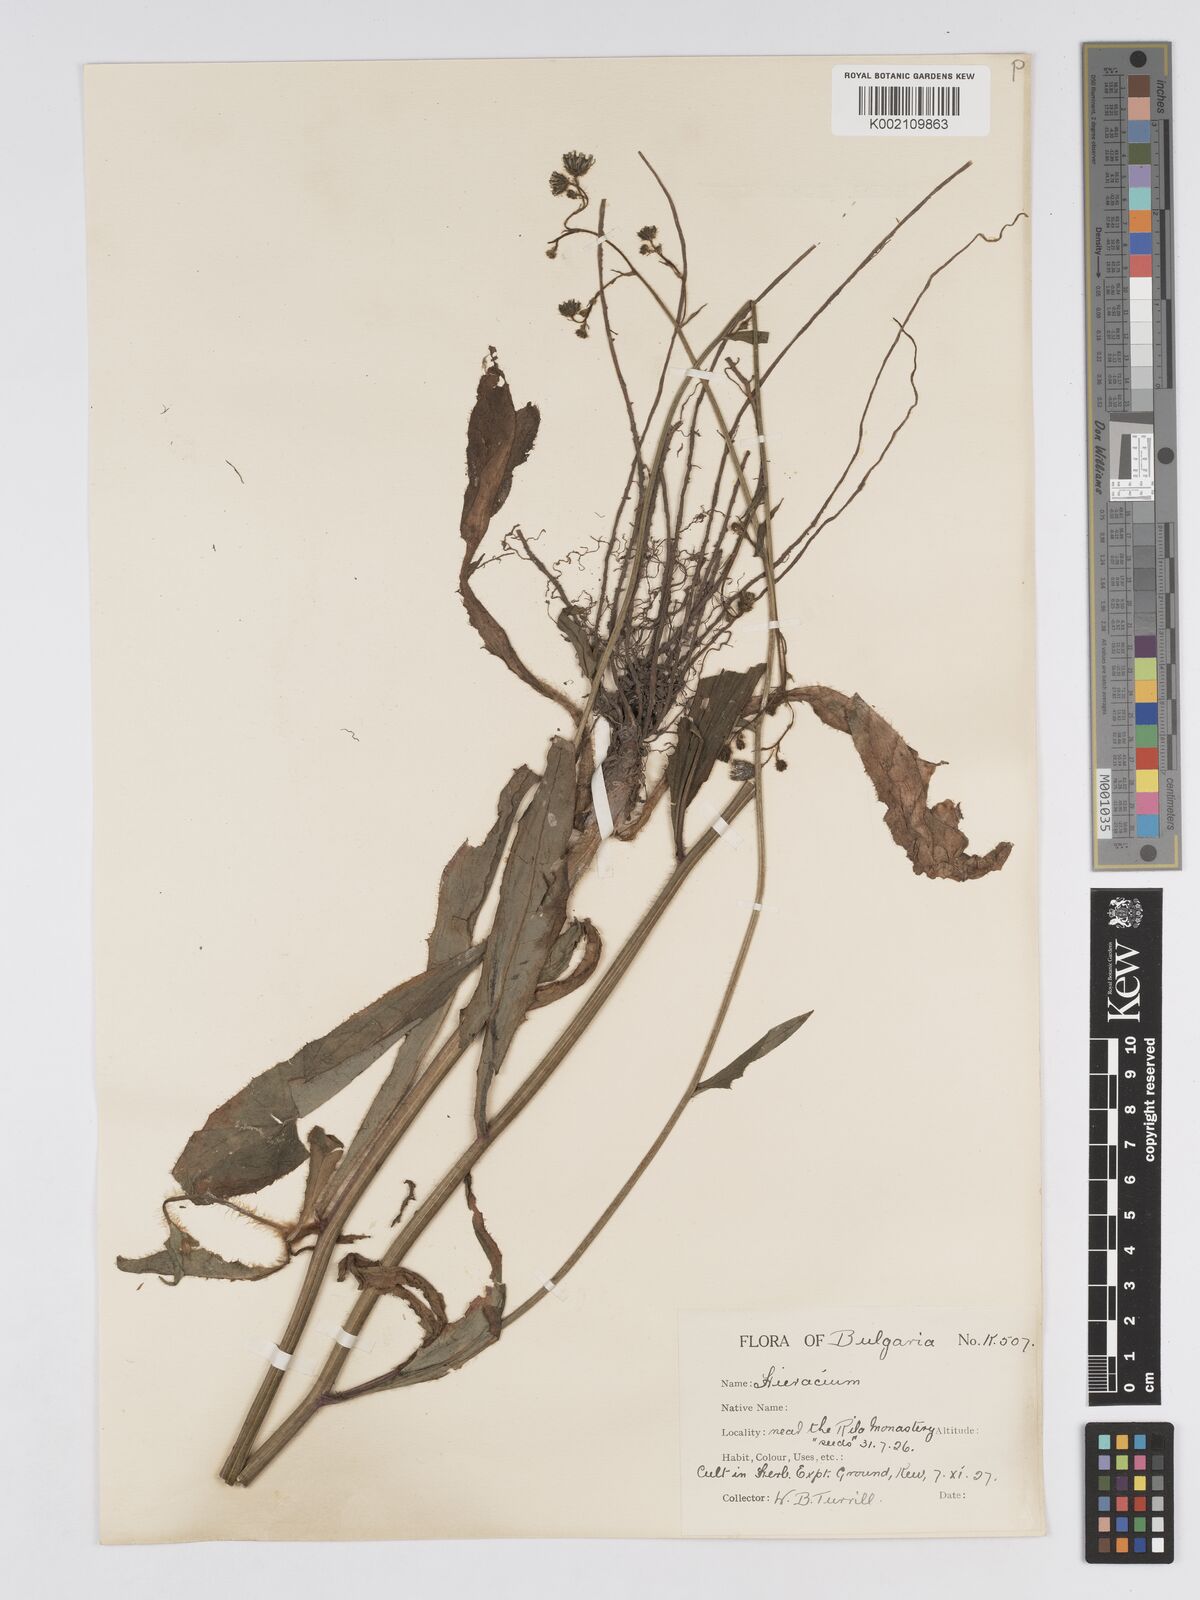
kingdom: Plantae
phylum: Tracheophyta
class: Magnoliopsida
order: Asterales
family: Asteraceae
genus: Hieracium
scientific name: Hieracium djimilense
